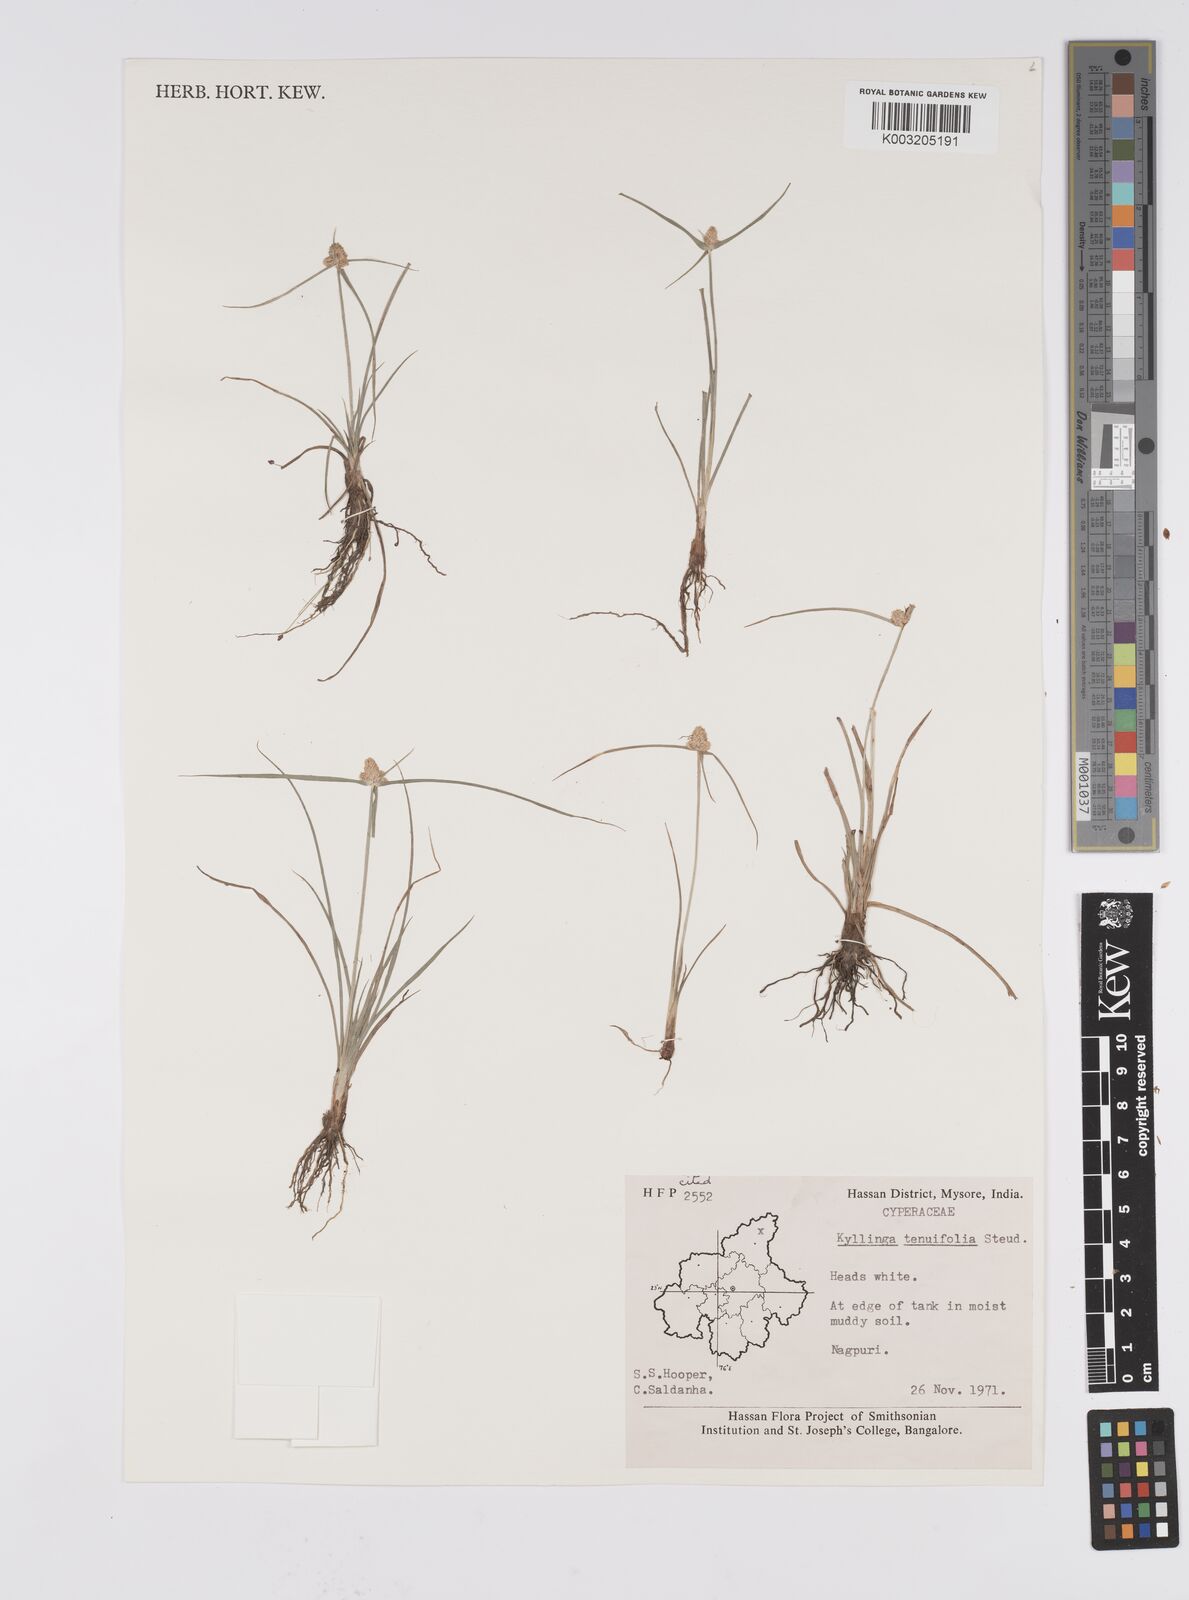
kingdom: Plantae
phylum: Tracheophyta
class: Liliopsida
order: Poales
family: Cyperaceae
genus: Cyperus
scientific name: Cyperus
